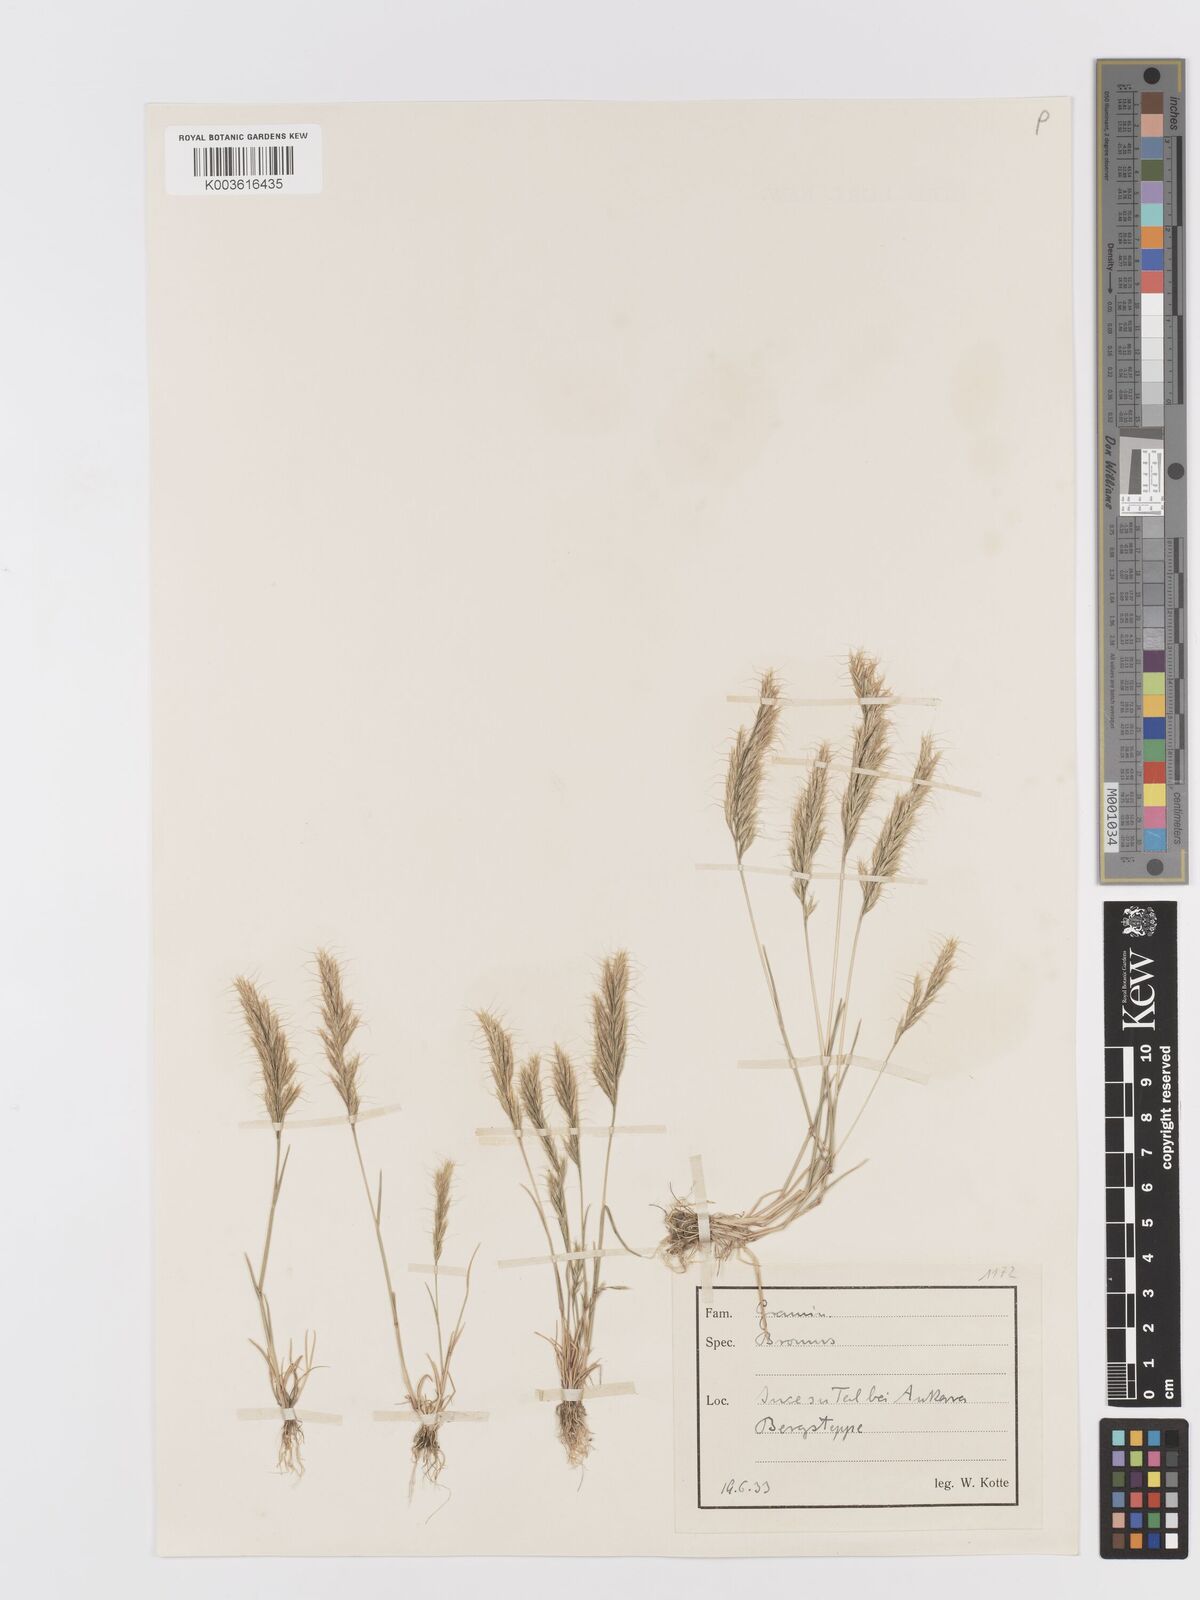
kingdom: Plantae
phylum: Tracheophyta
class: Liliopsida
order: Poales
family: Poaceae
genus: Ventenata
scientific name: Ventenata macra
